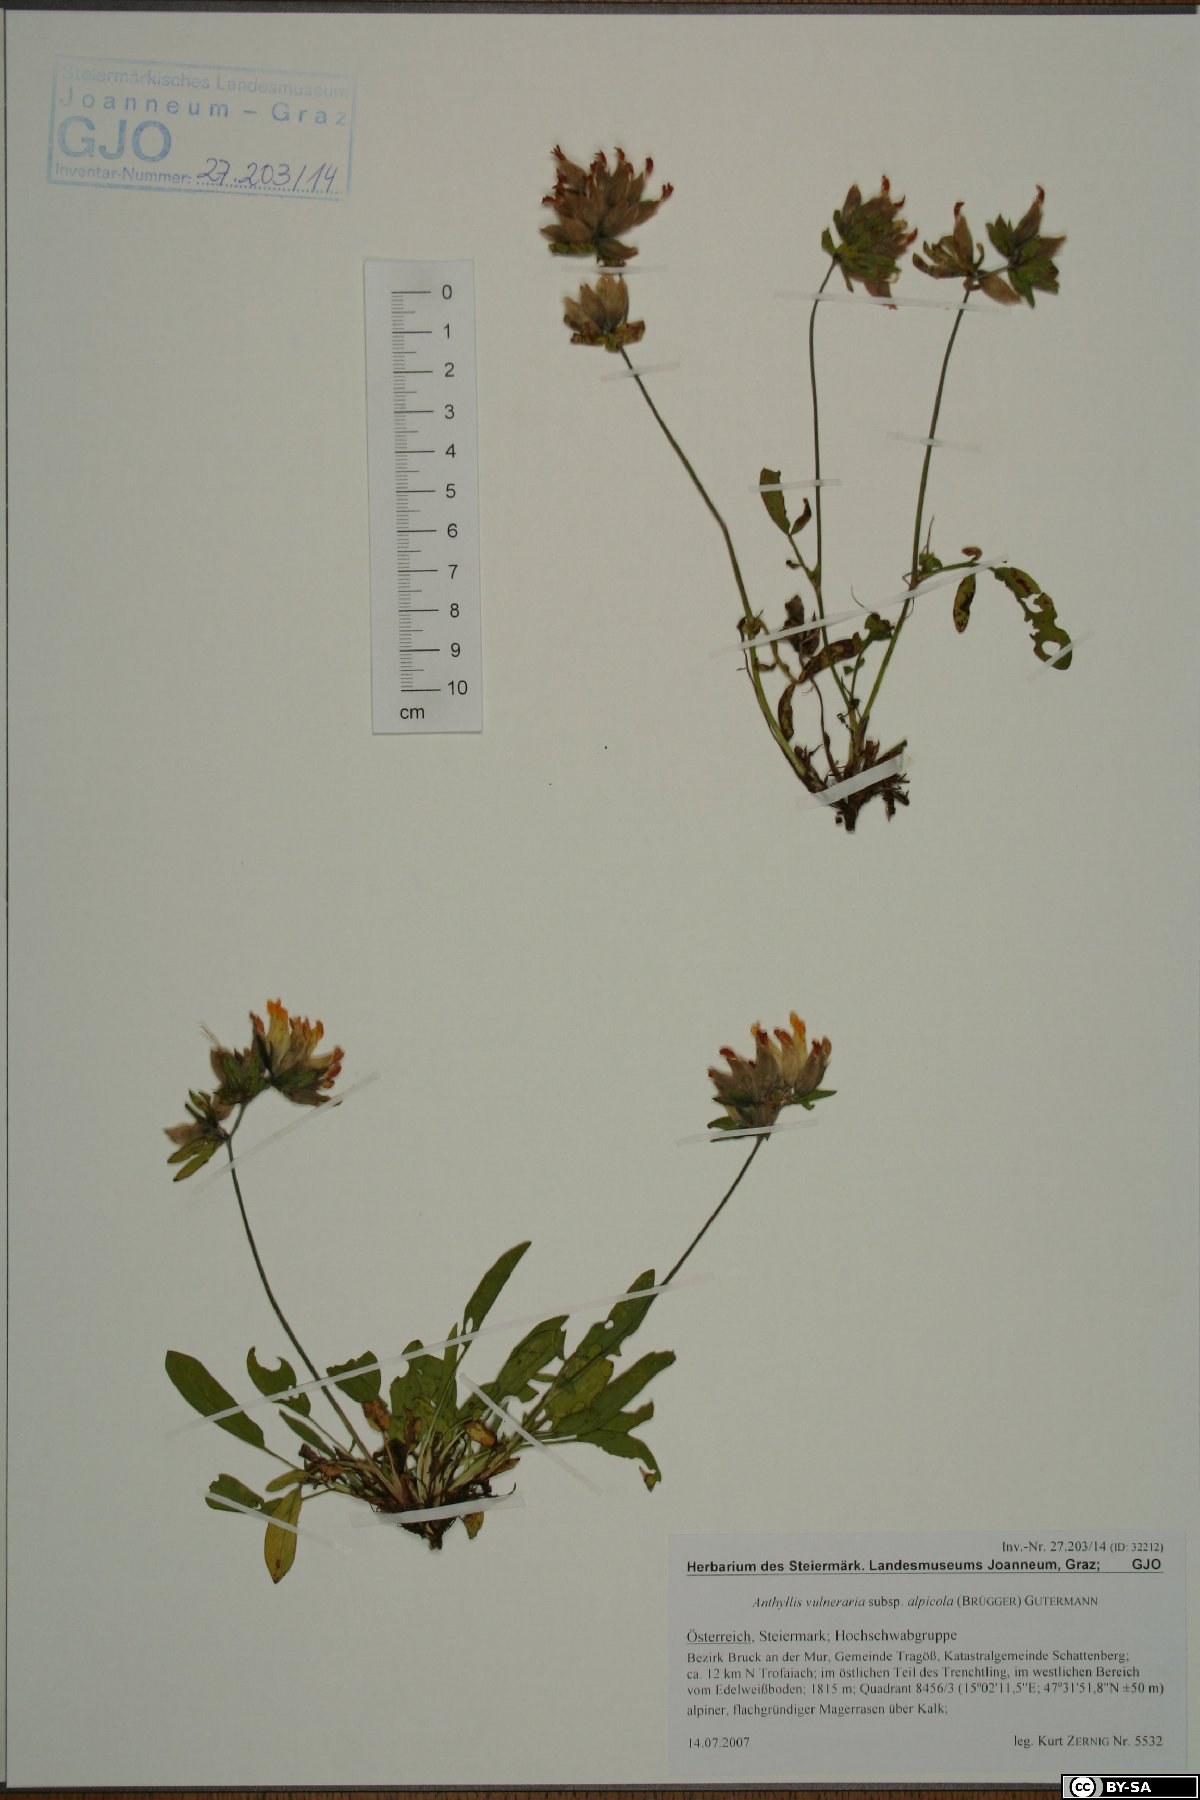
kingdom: Plantae
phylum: Tracheophyta
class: Magnoliopsida
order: Fabales
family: Fabaceae
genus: Anthyllis
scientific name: Anthyllis vulneraria
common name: Kidney vetch
